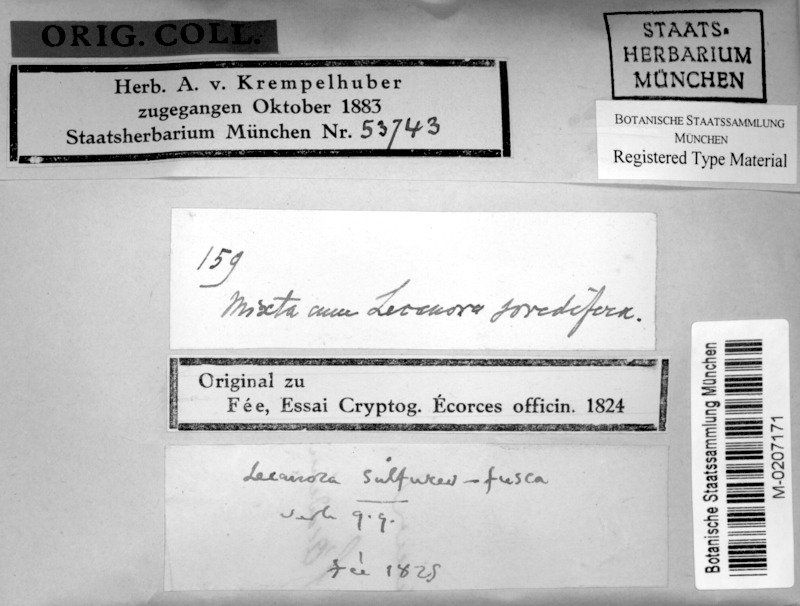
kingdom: Fungi
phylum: Ascomycota
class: Lecanoromycetes
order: Teloschistales
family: Megalosporaceae
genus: Sipmaniella
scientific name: Sipmaniella sulfureofusca
